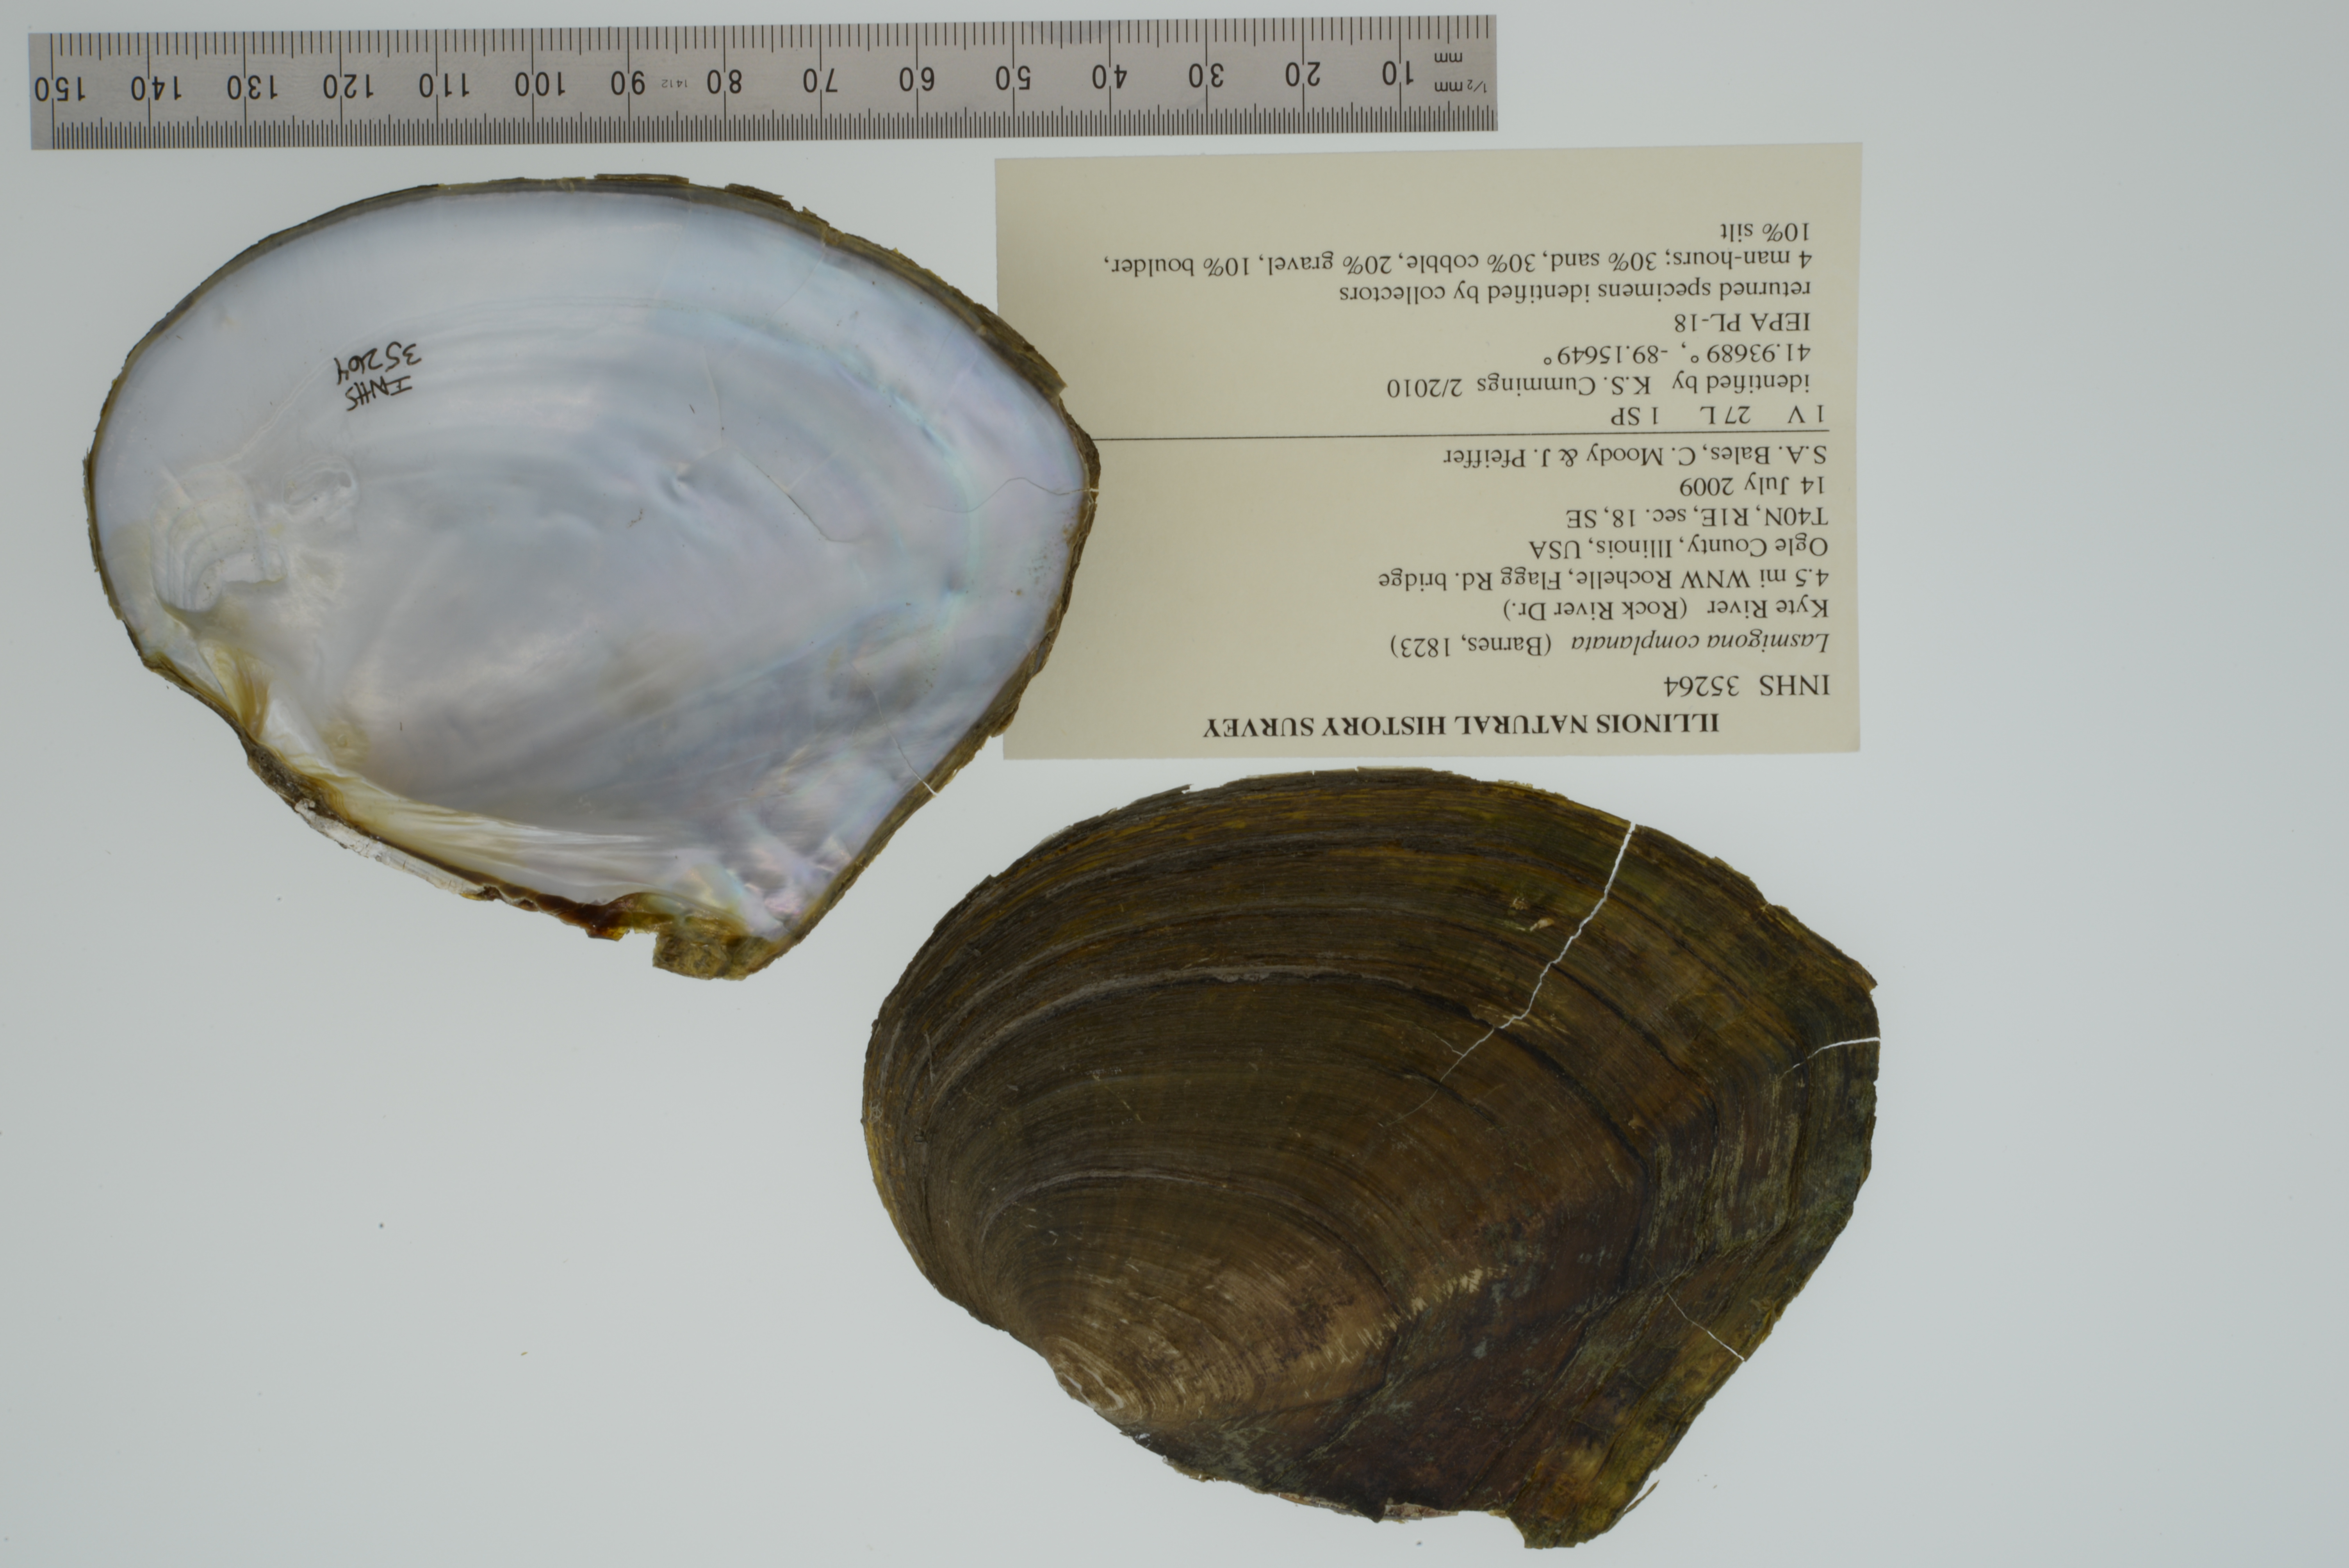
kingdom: Animalia
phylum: Mollusca
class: Bivalvia
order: Unionida
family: Unionidae
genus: Lasmigona
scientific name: Lasmigona complanata
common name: White heelsplitter
